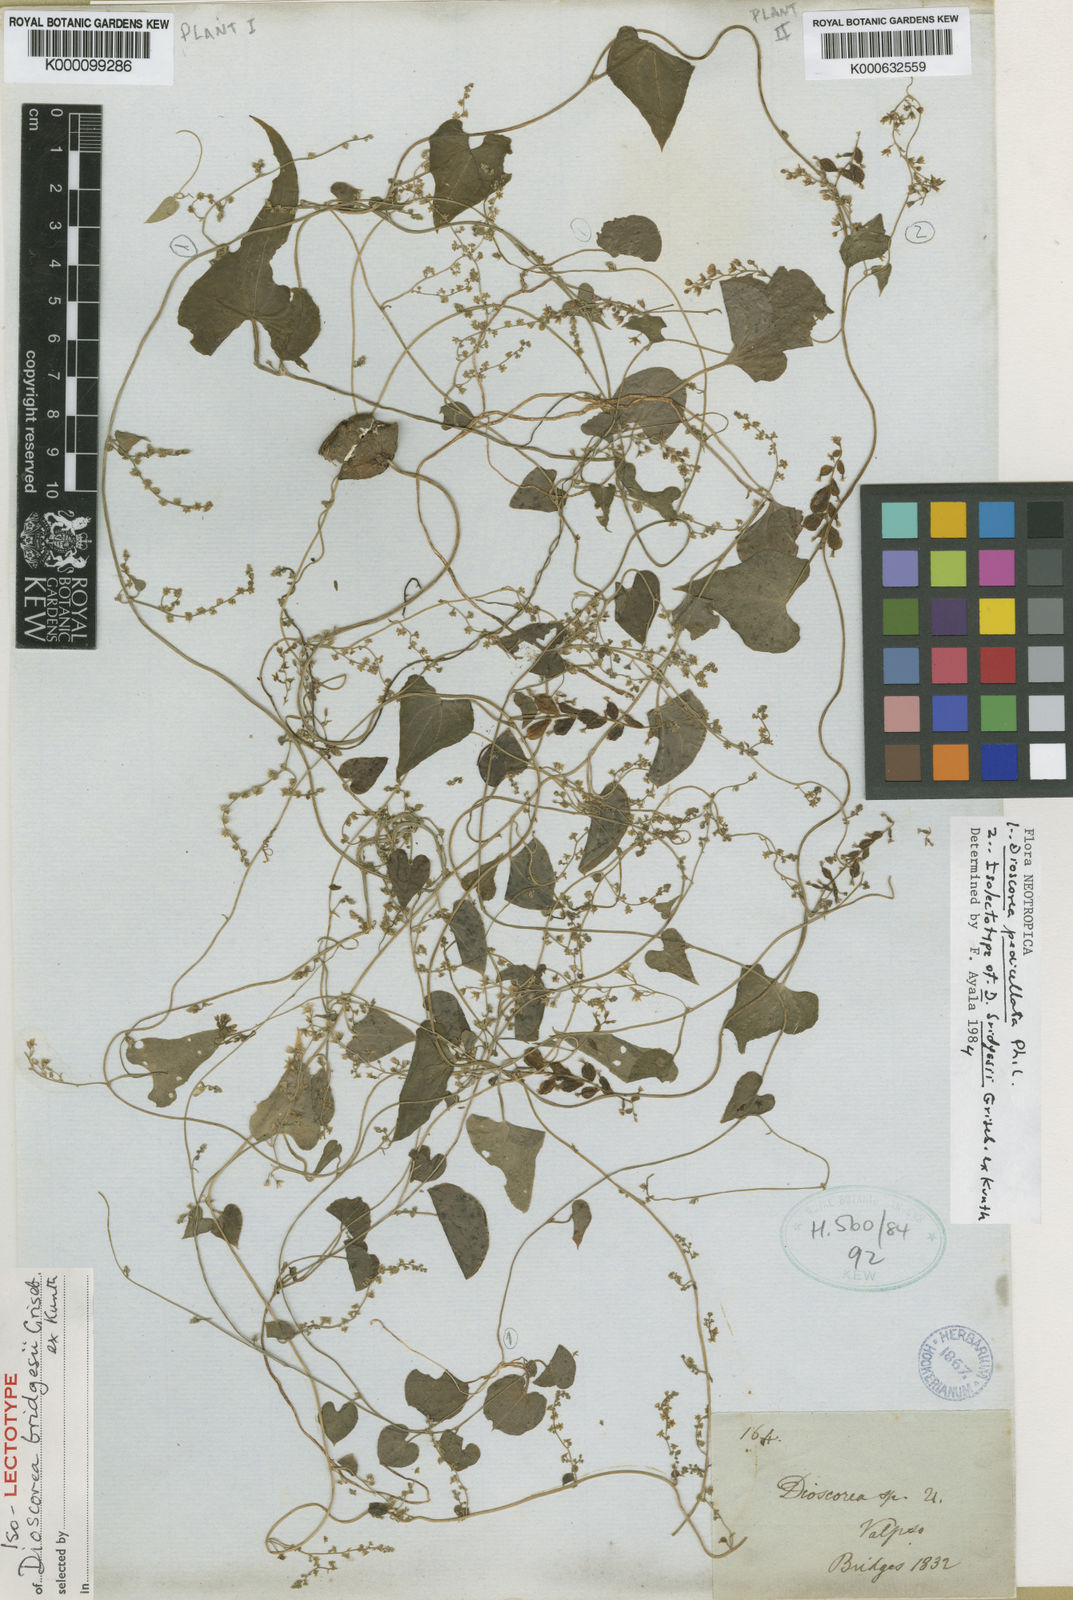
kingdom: Plantae
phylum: Tracheophyta
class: Liliopsida
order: Dioscoreales
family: Dioscoreaceae
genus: Dioscorea
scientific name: Dioscorea bridgesii
